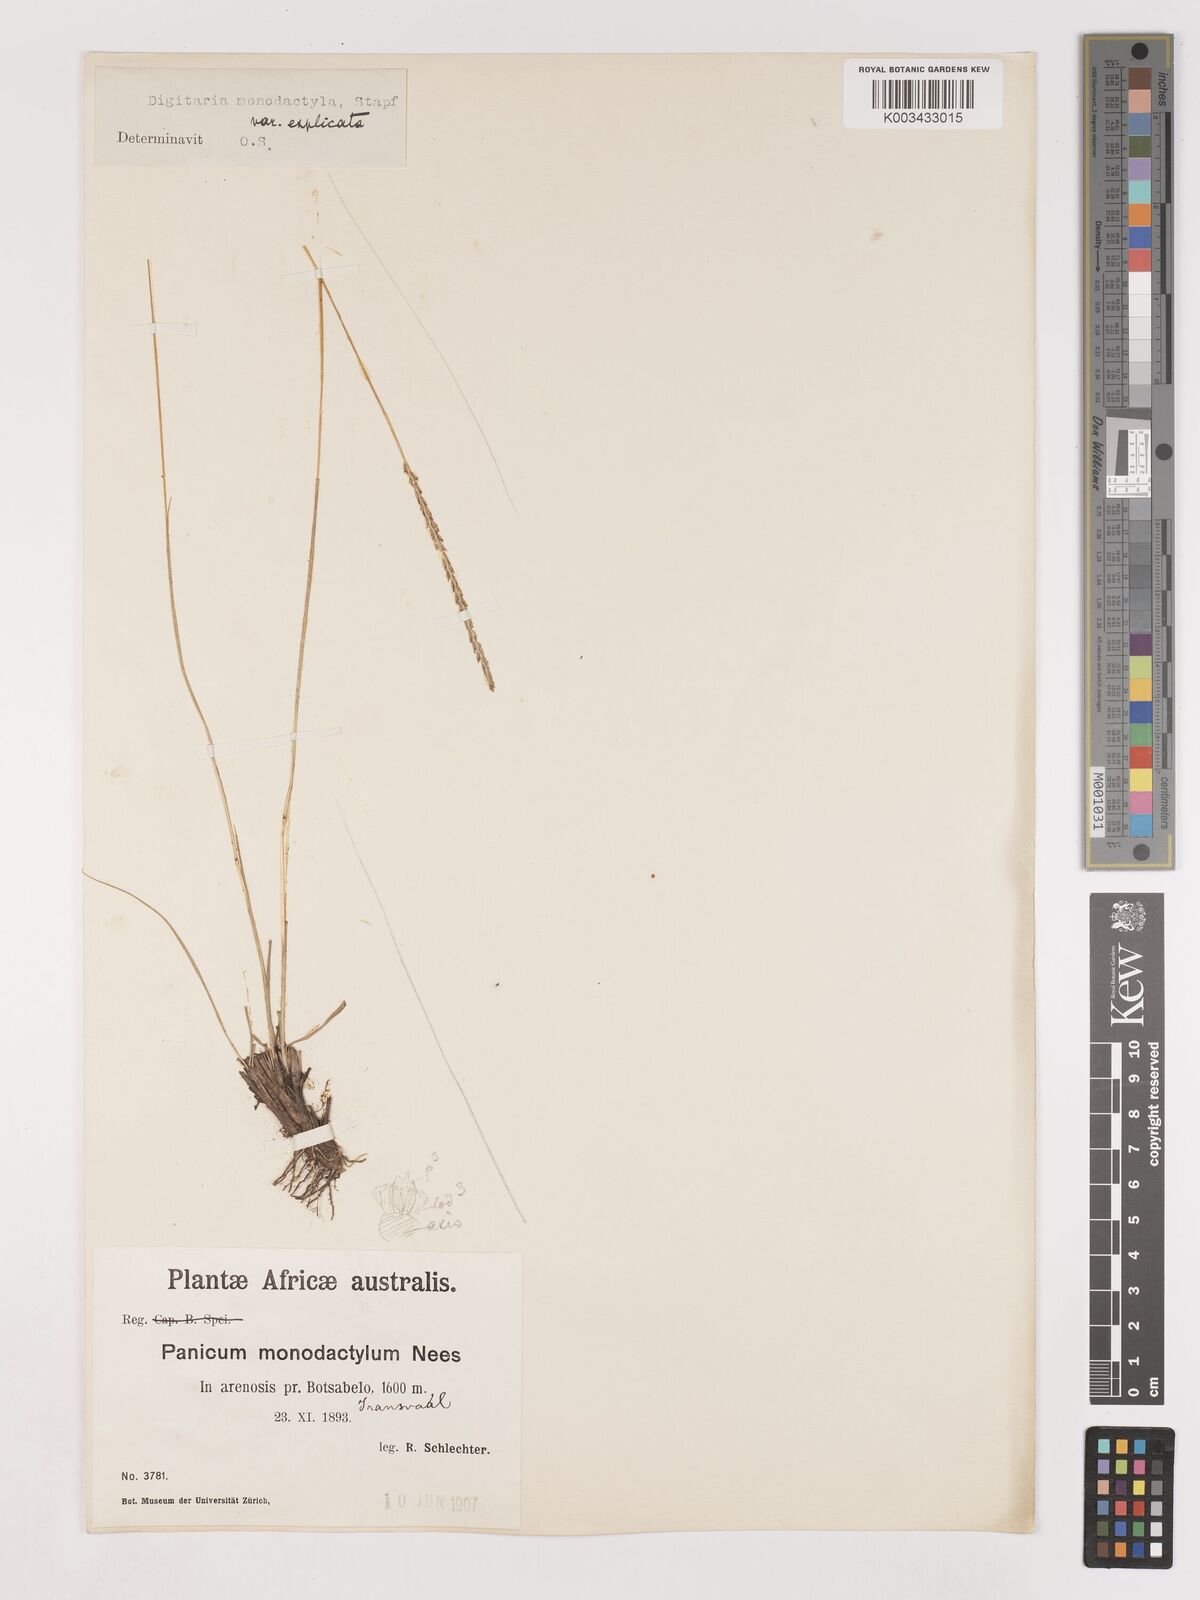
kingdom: Plantae
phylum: Tracheophyta
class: Liliopsida
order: Poales
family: Poaceae
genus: Digitaria
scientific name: Digitaria monodactyla
